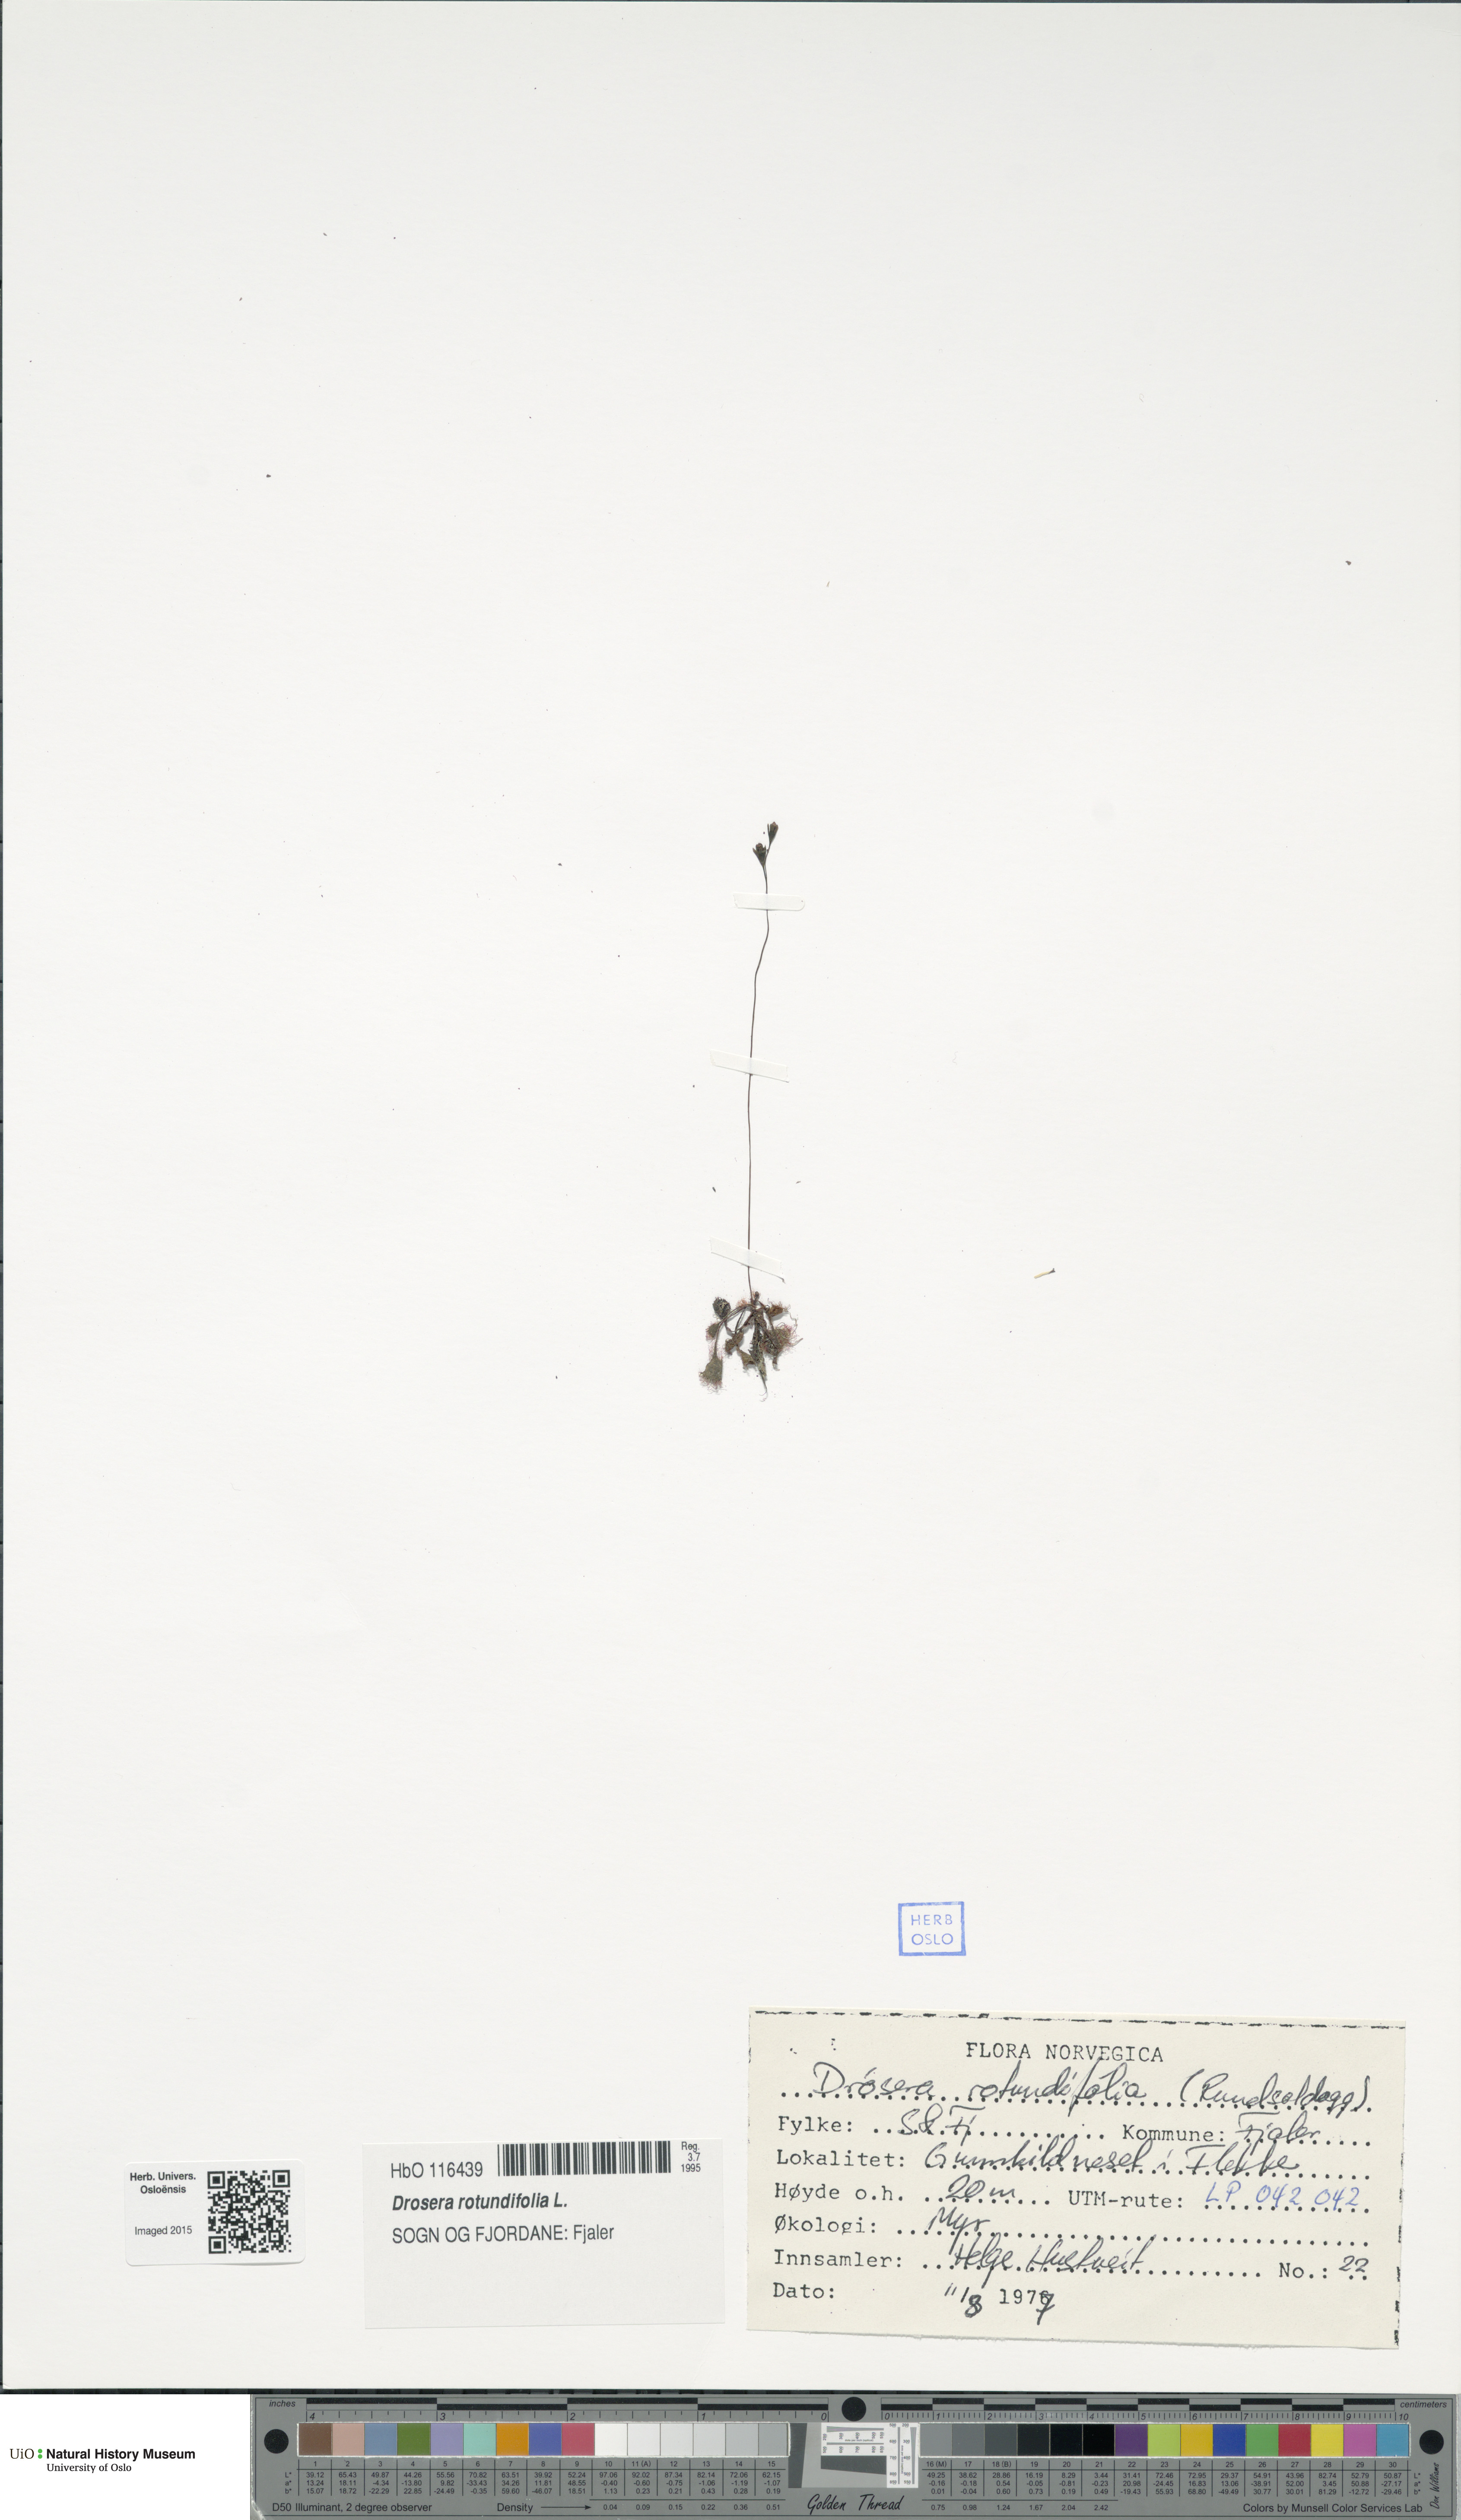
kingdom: Plantae
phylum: Tracheophyta
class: Magnoliopsida
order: Caryophyllales
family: Droseraceae
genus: Drosera
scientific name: Drosera rotundifolia
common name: Round-leaved sundew
